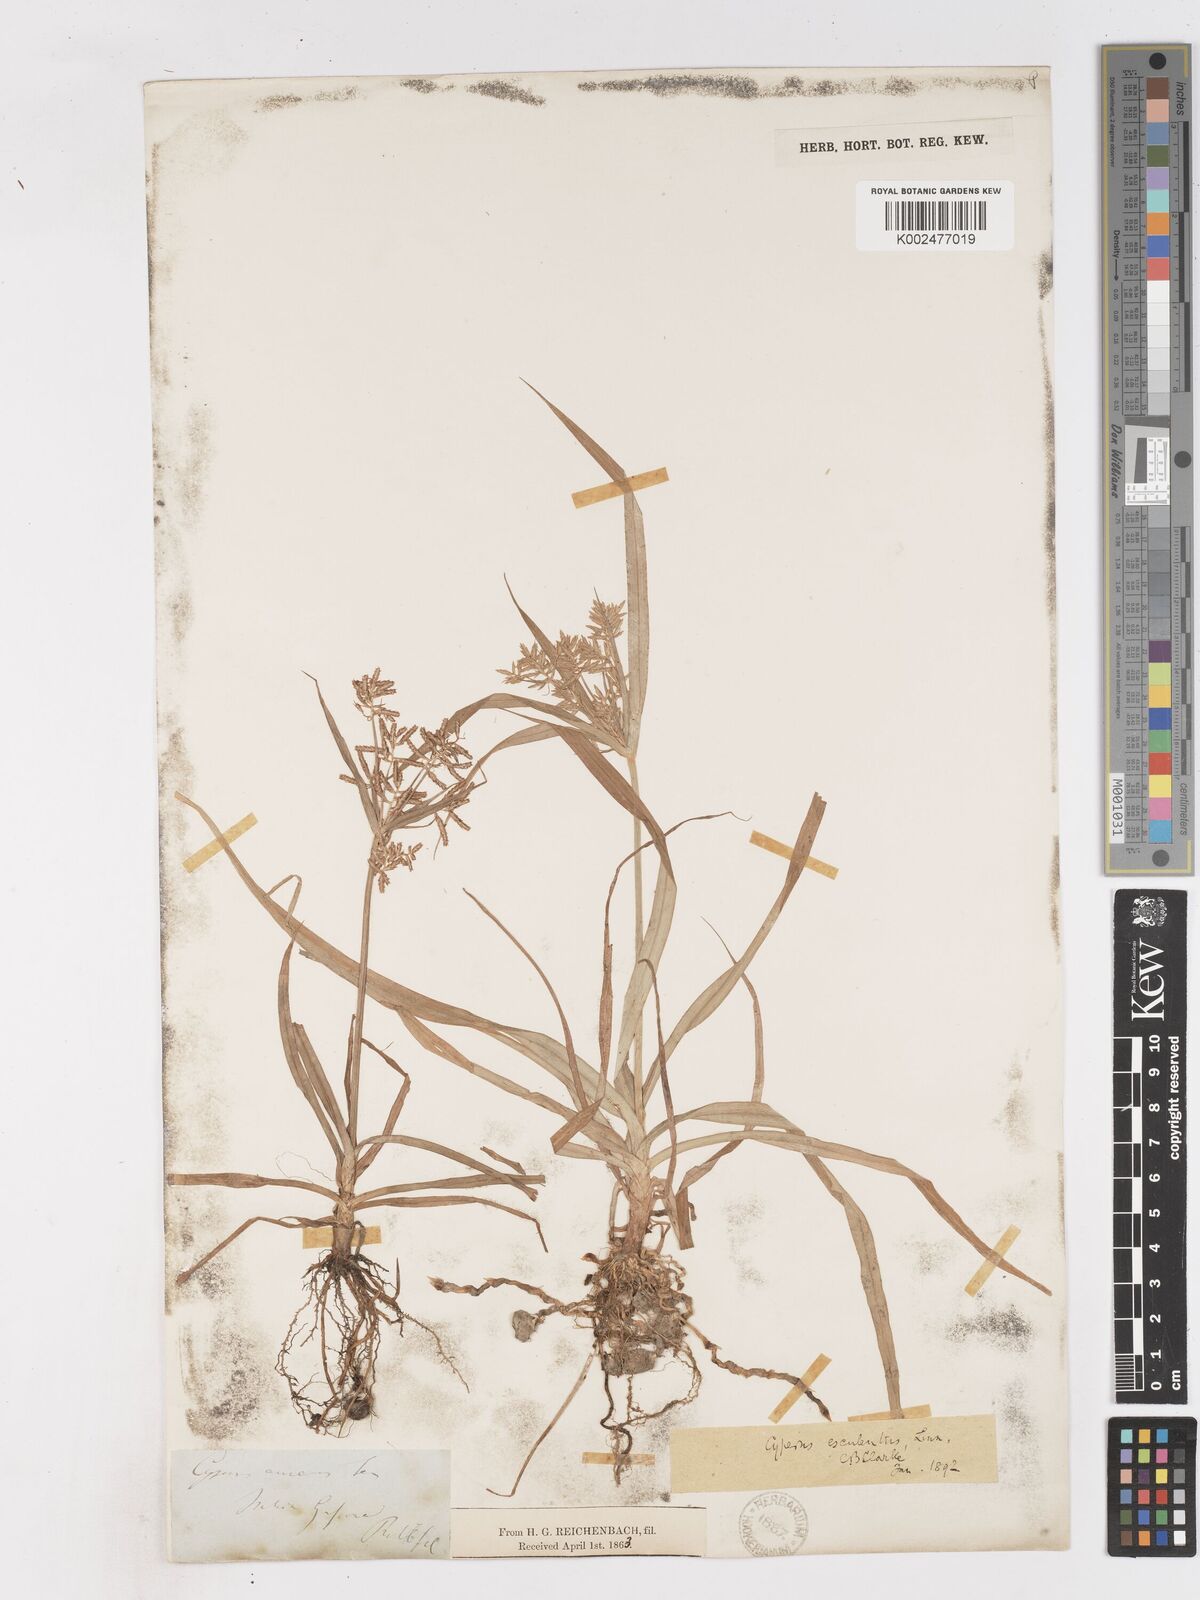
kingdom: Plantae
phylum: Tracheophyta
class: Liliopsida
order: Poales
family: Cyperaceae
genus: Cyperus
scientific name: Cyperus esculentus
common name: Yellow nutsedge
